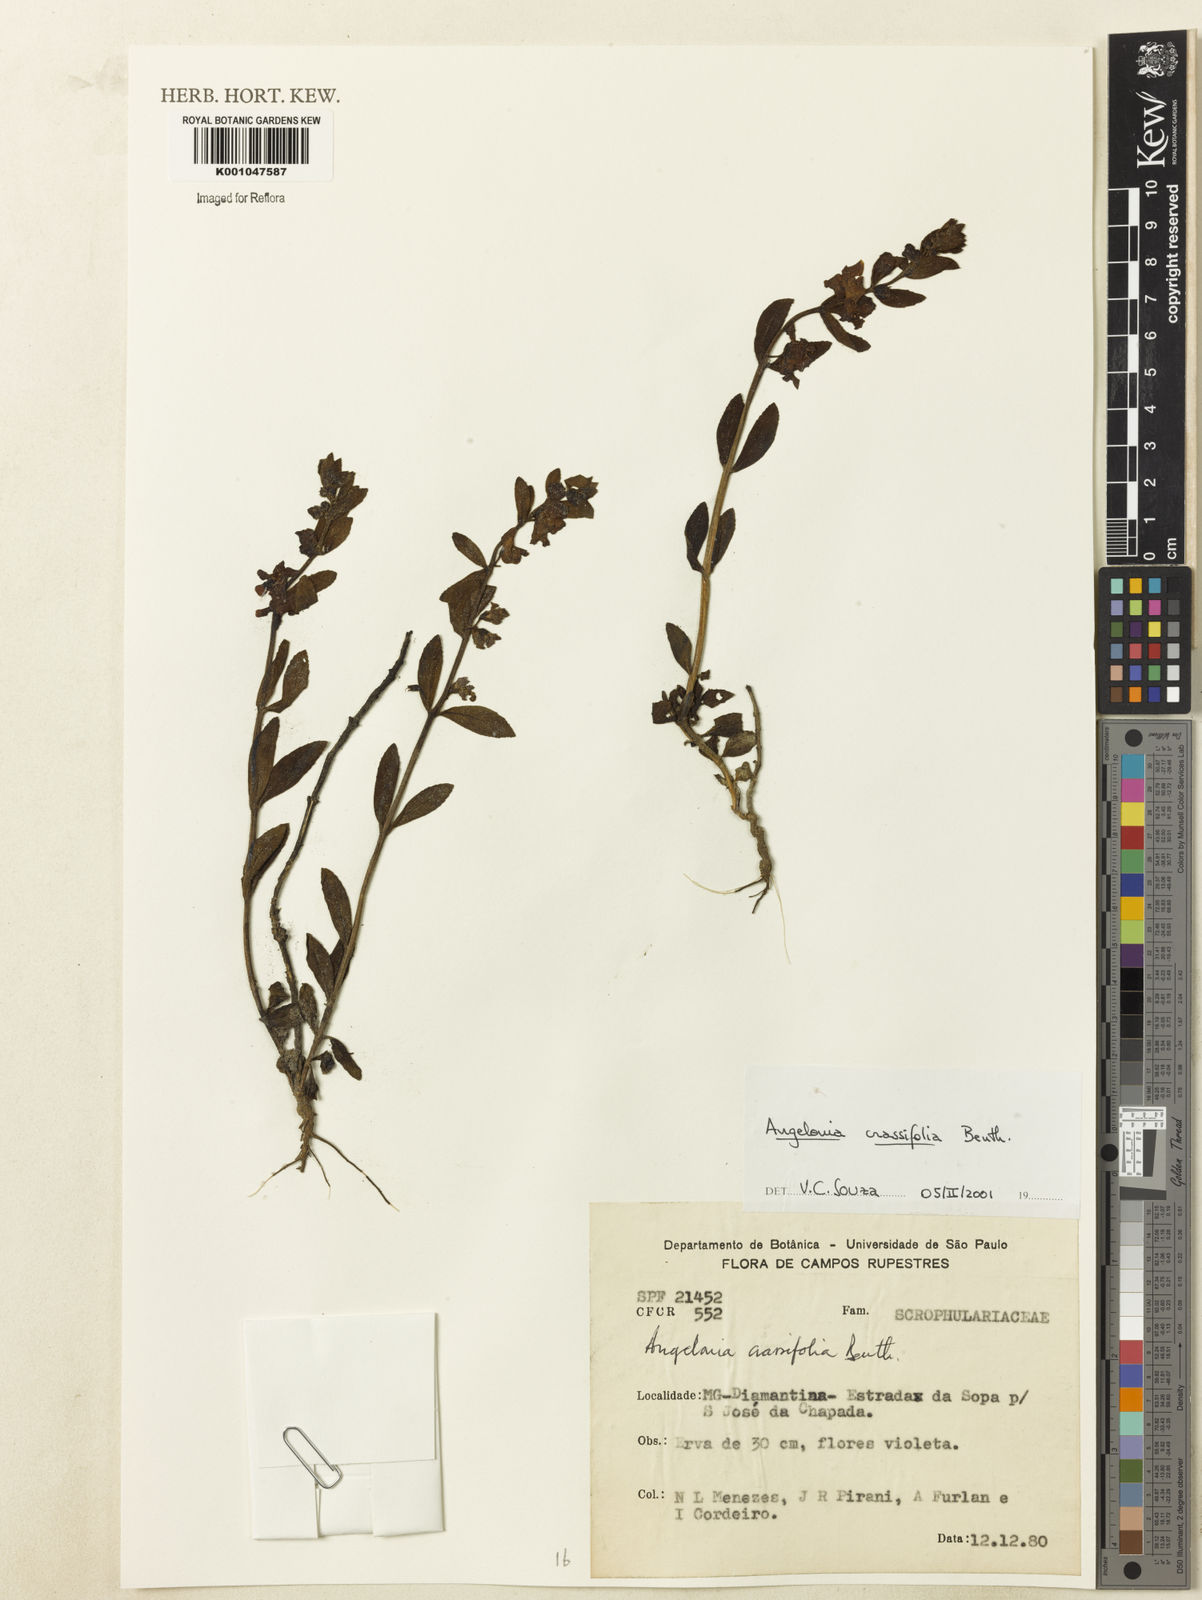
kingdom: Plantae
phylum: Tracheophyta
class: Magnoliopsida
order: Lamiales
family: Plantaginaceae
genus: Angelonia
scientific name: Angelonia crassifolia
